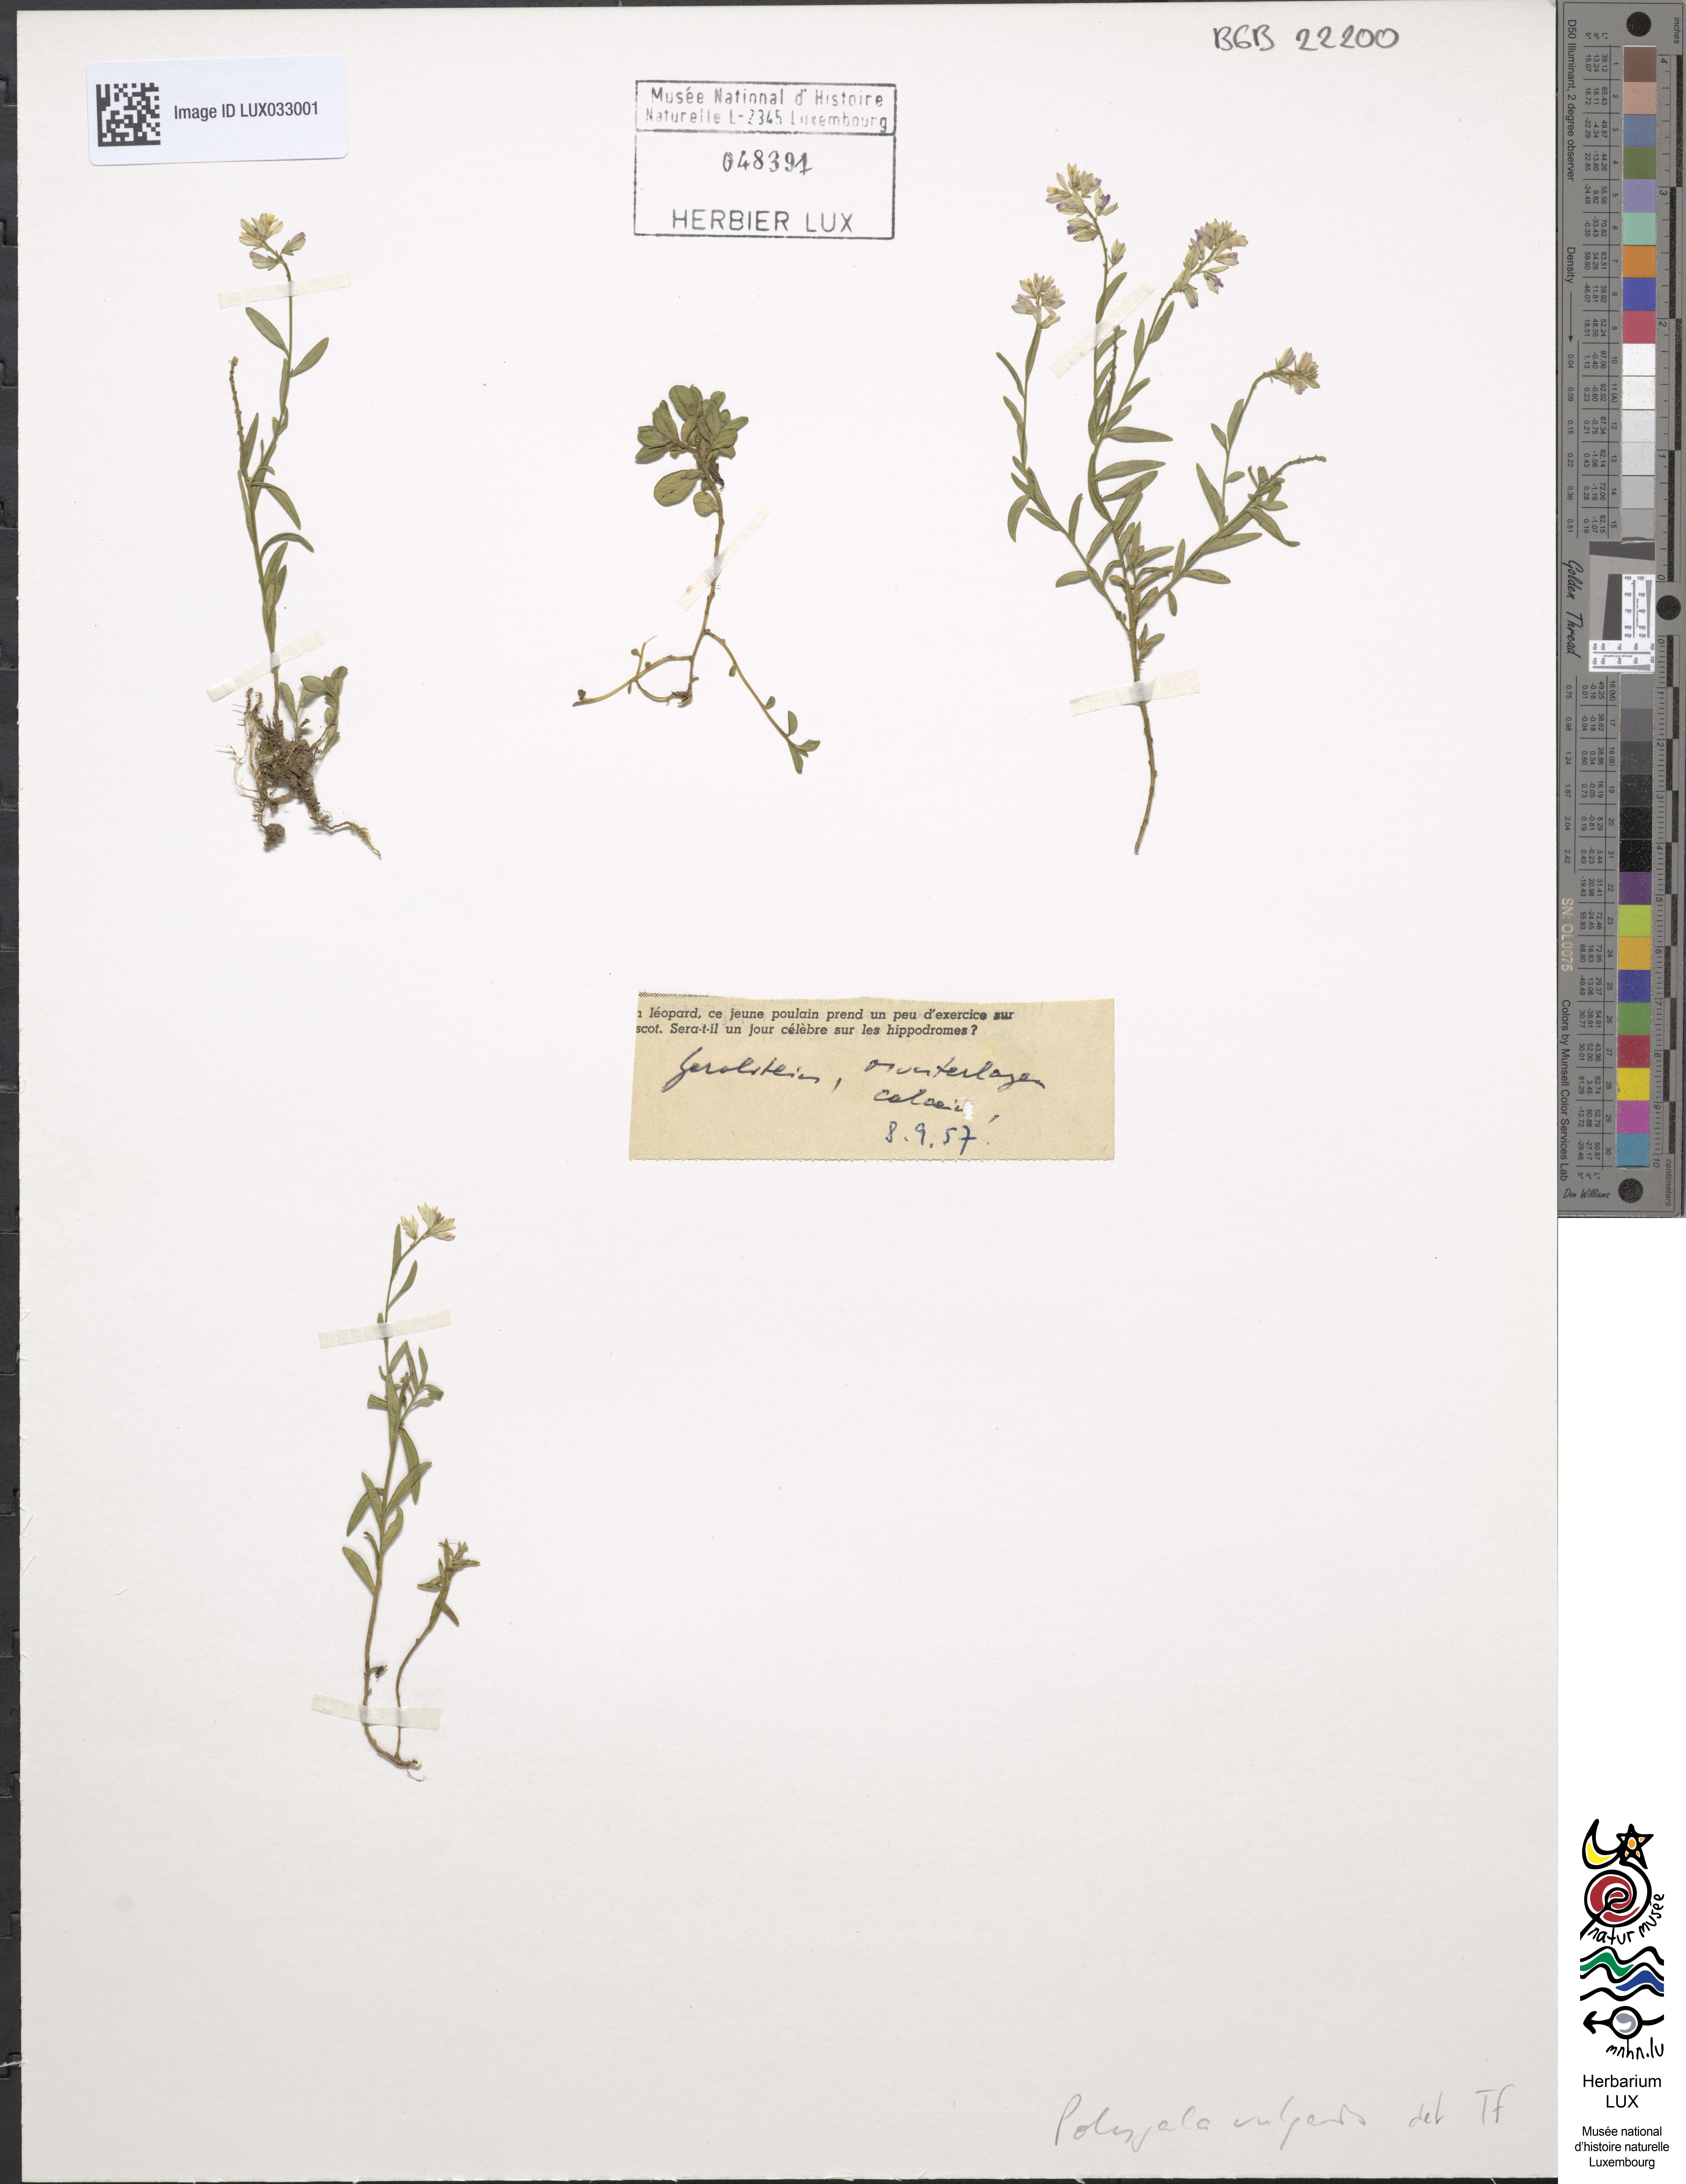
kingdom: Plantae
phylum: Tracheophyta
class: Magnoliopsida
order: Fabales
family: Polygalaceae
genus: Polygala
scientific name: Polygala vulgaris
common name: Common milkwort
